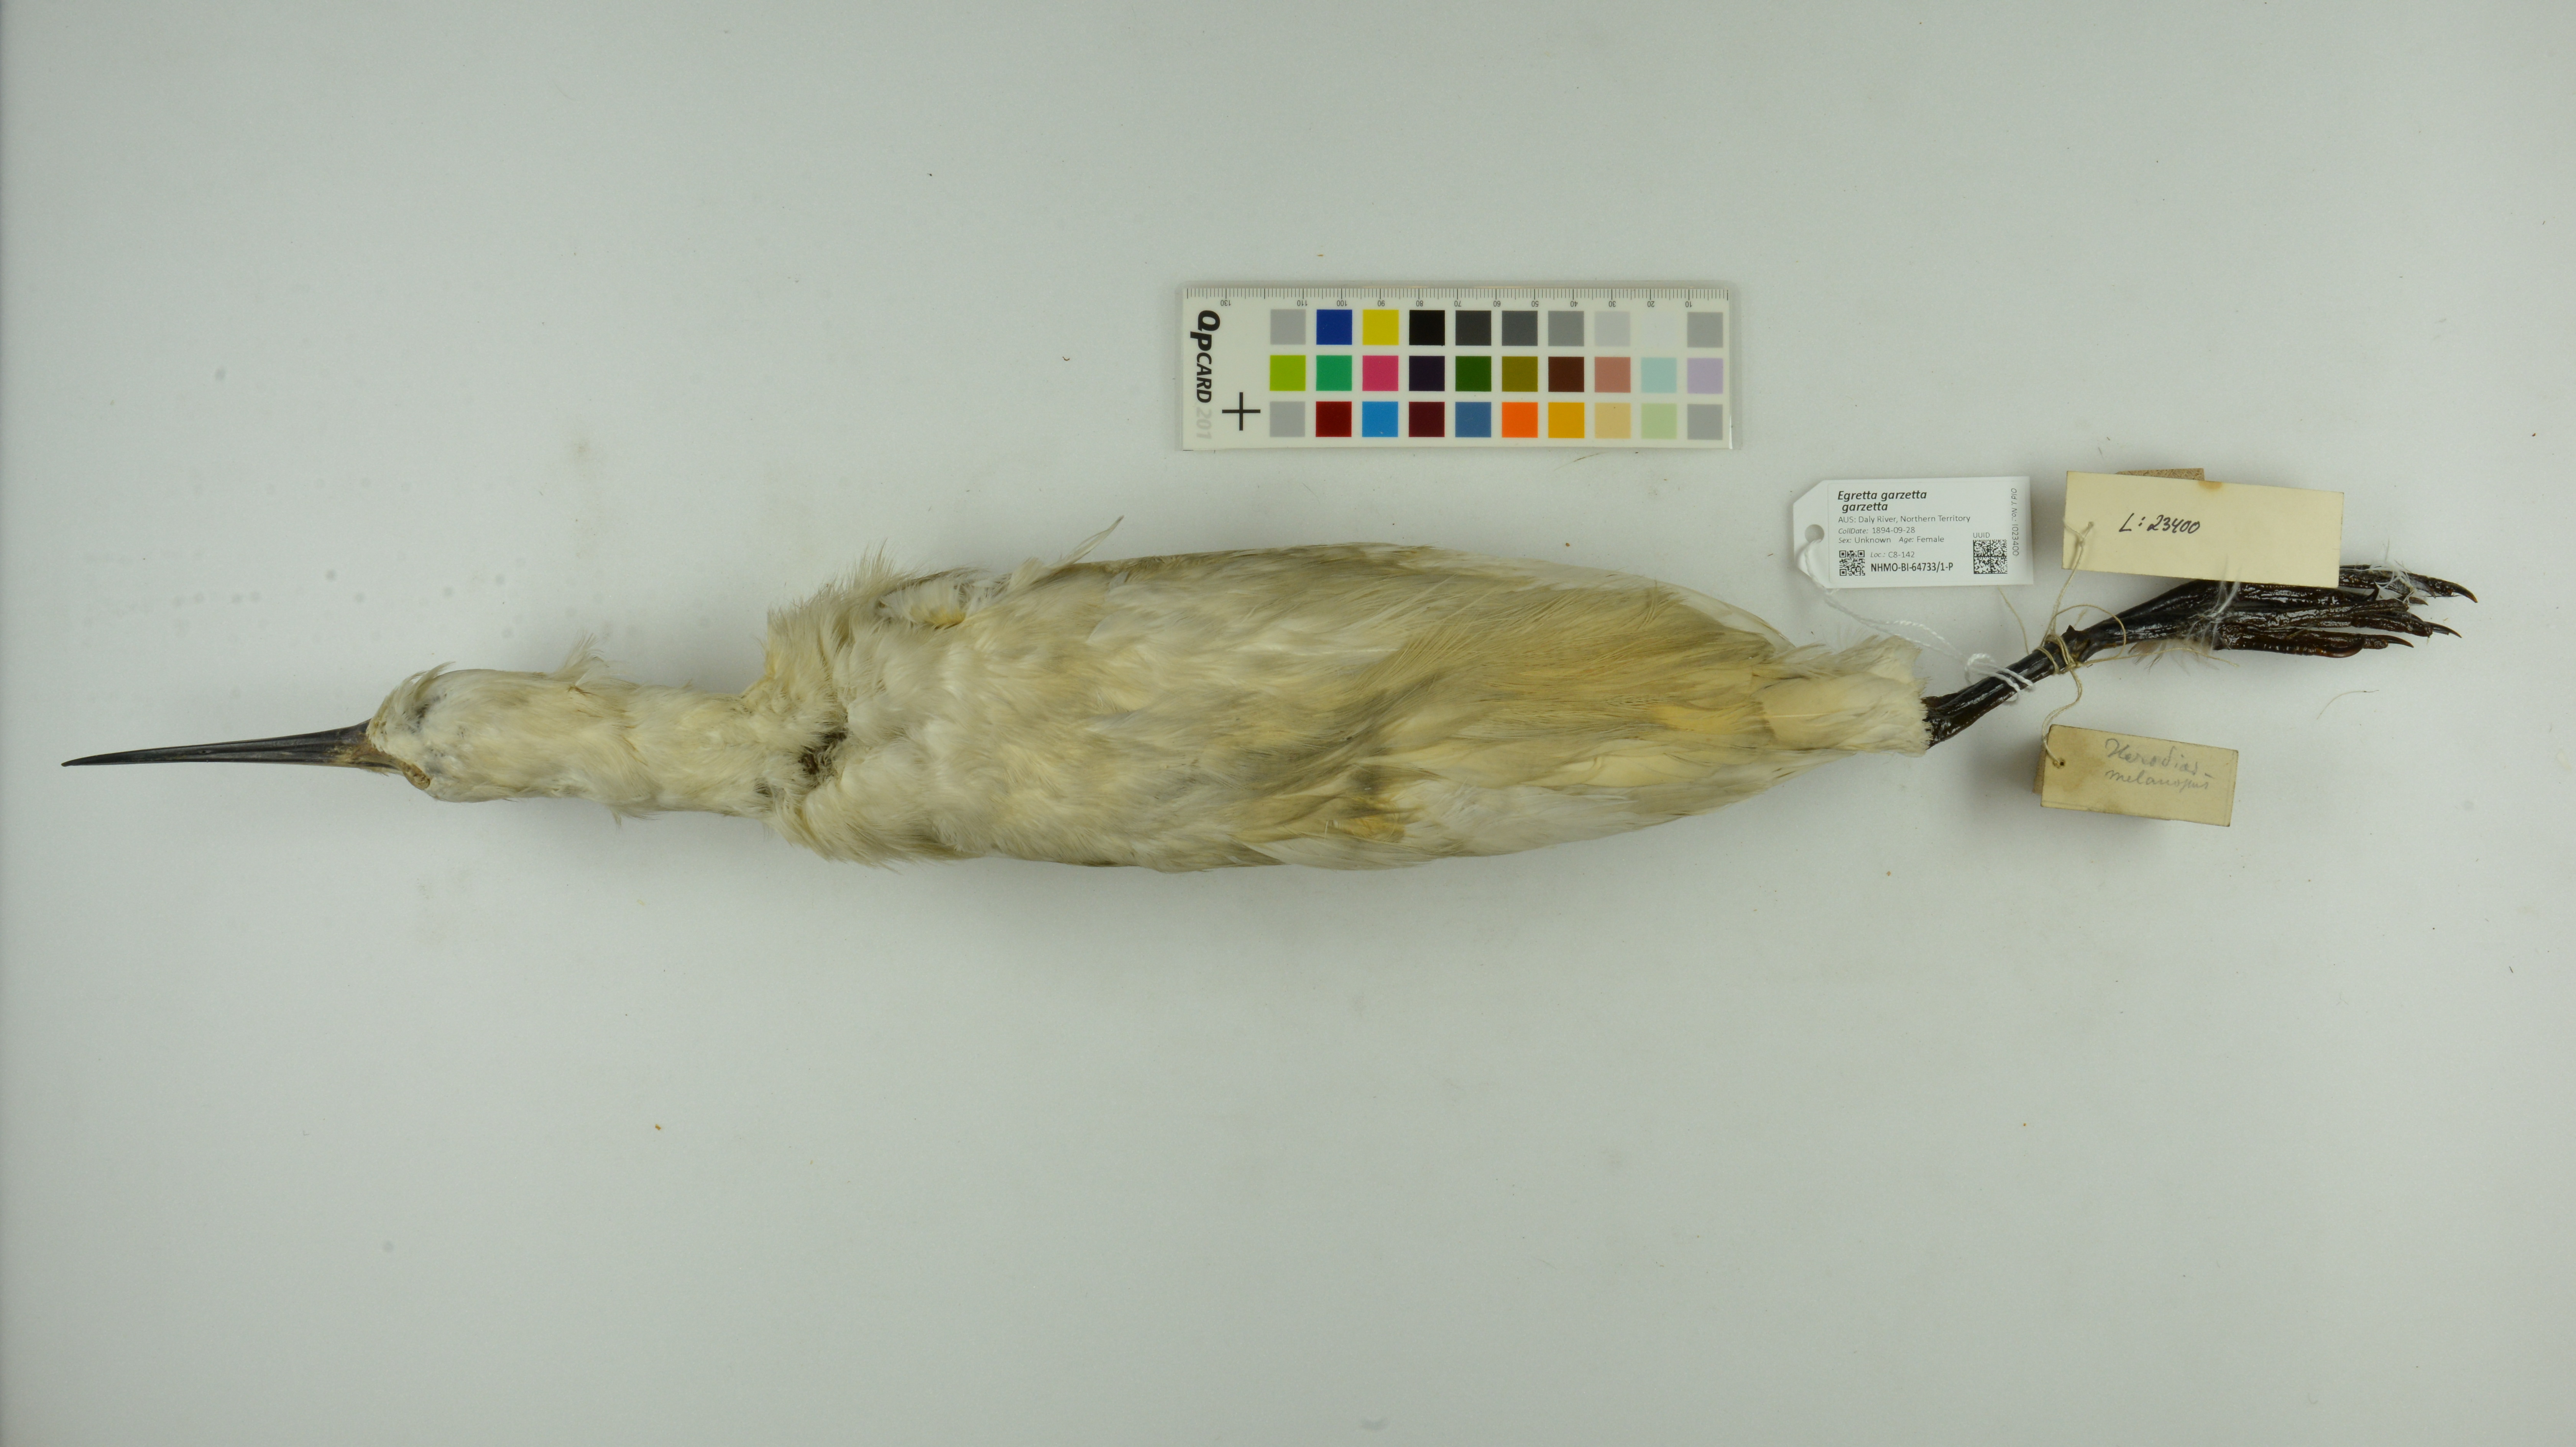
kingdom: Animalia
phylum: Chordata
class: Aves
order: Pelecaniformes
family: Ardeidae
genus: Egretta
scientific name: Egretta garzetta
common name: Little egret
